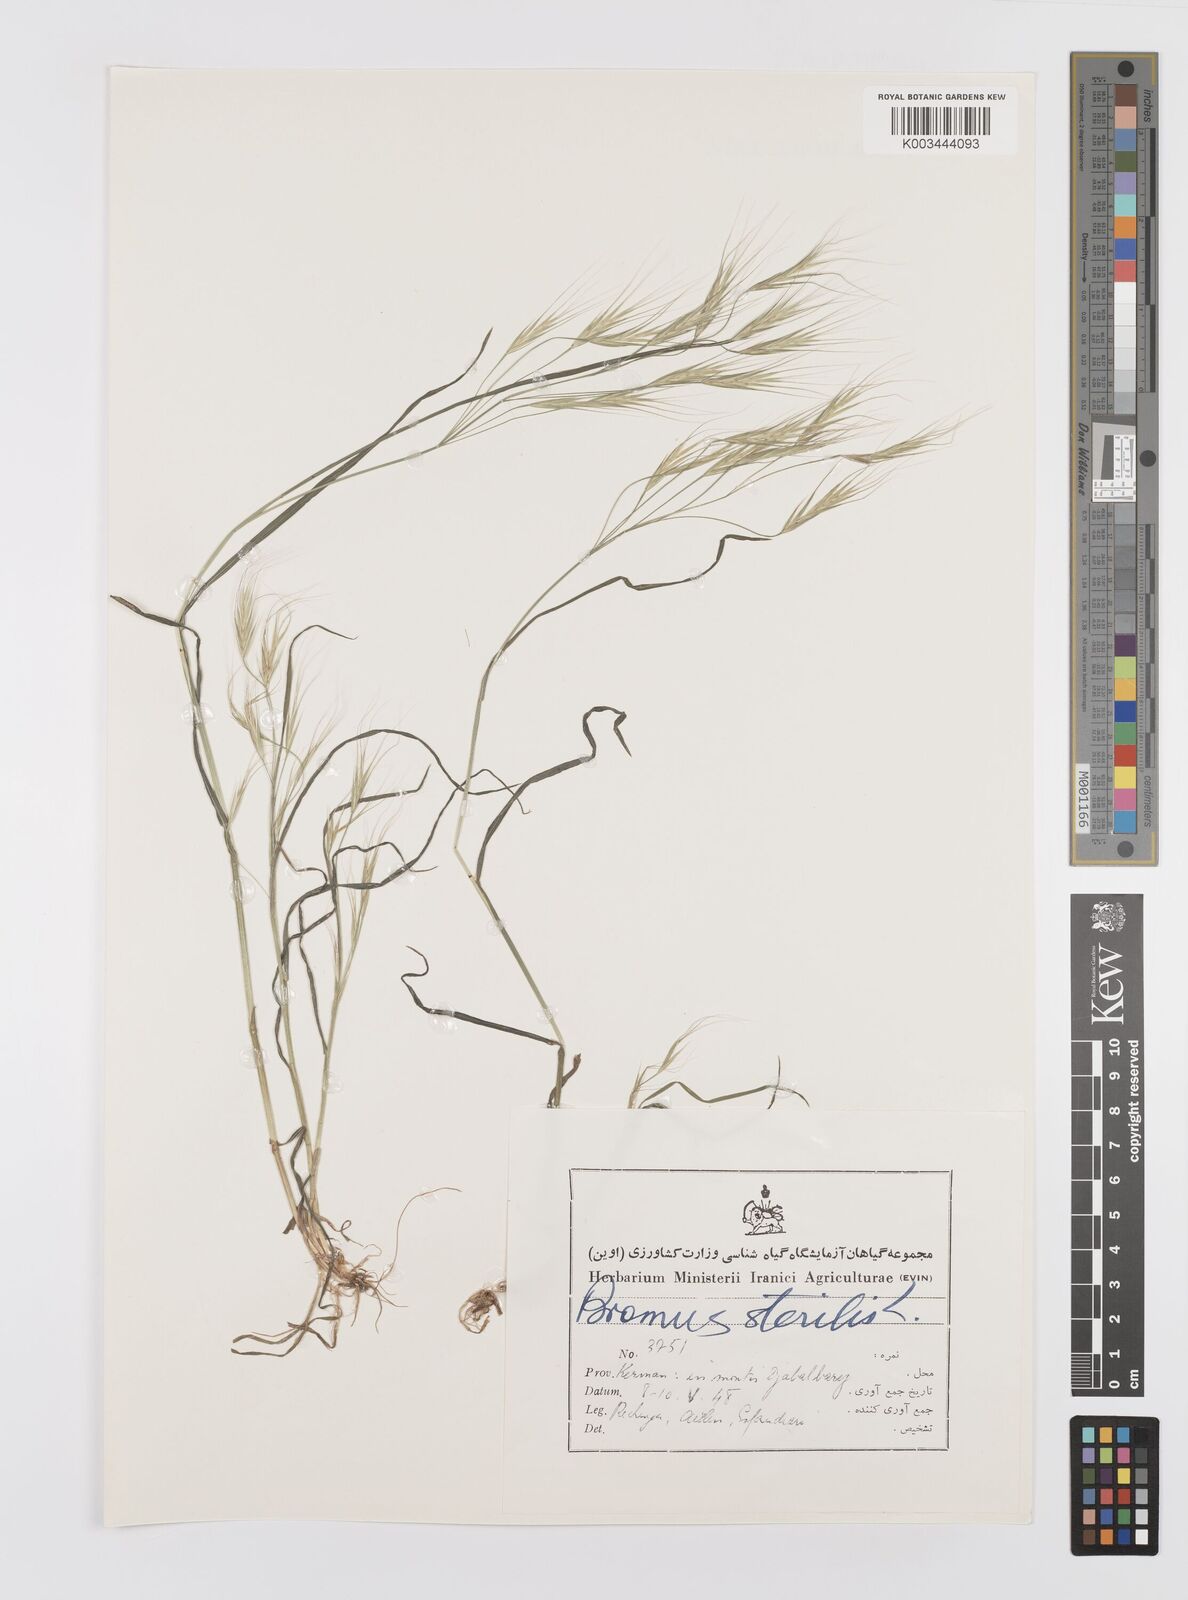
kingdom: Plantae
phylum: Tracheophyta
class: Liliopsida
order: Poales
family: Poaceae
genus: Bromus
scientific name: Bromus sterilis
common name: Poverty brome
